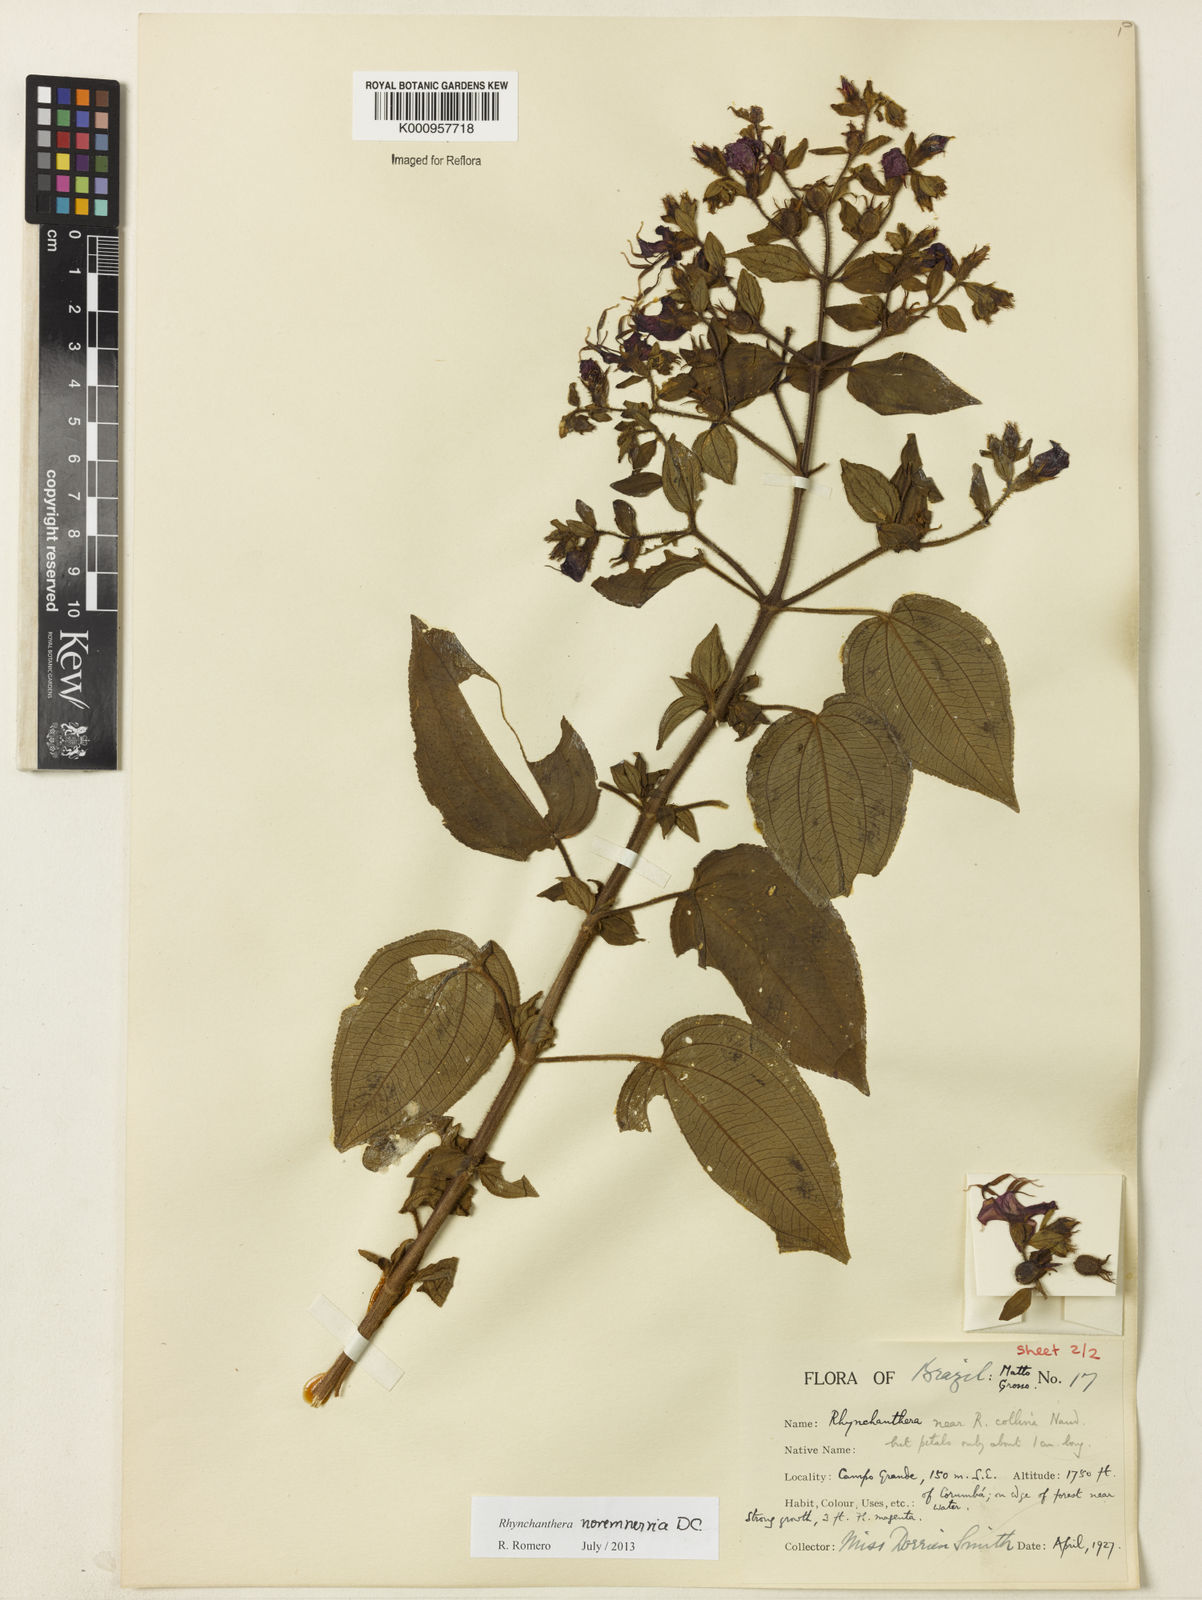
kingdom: Plantae
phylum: Tracheophyta
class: Magnoliopsida
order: Myrtales
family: Melastomataceae
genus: Rhynchanthera
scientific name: Rhynchanthera novemnervia
